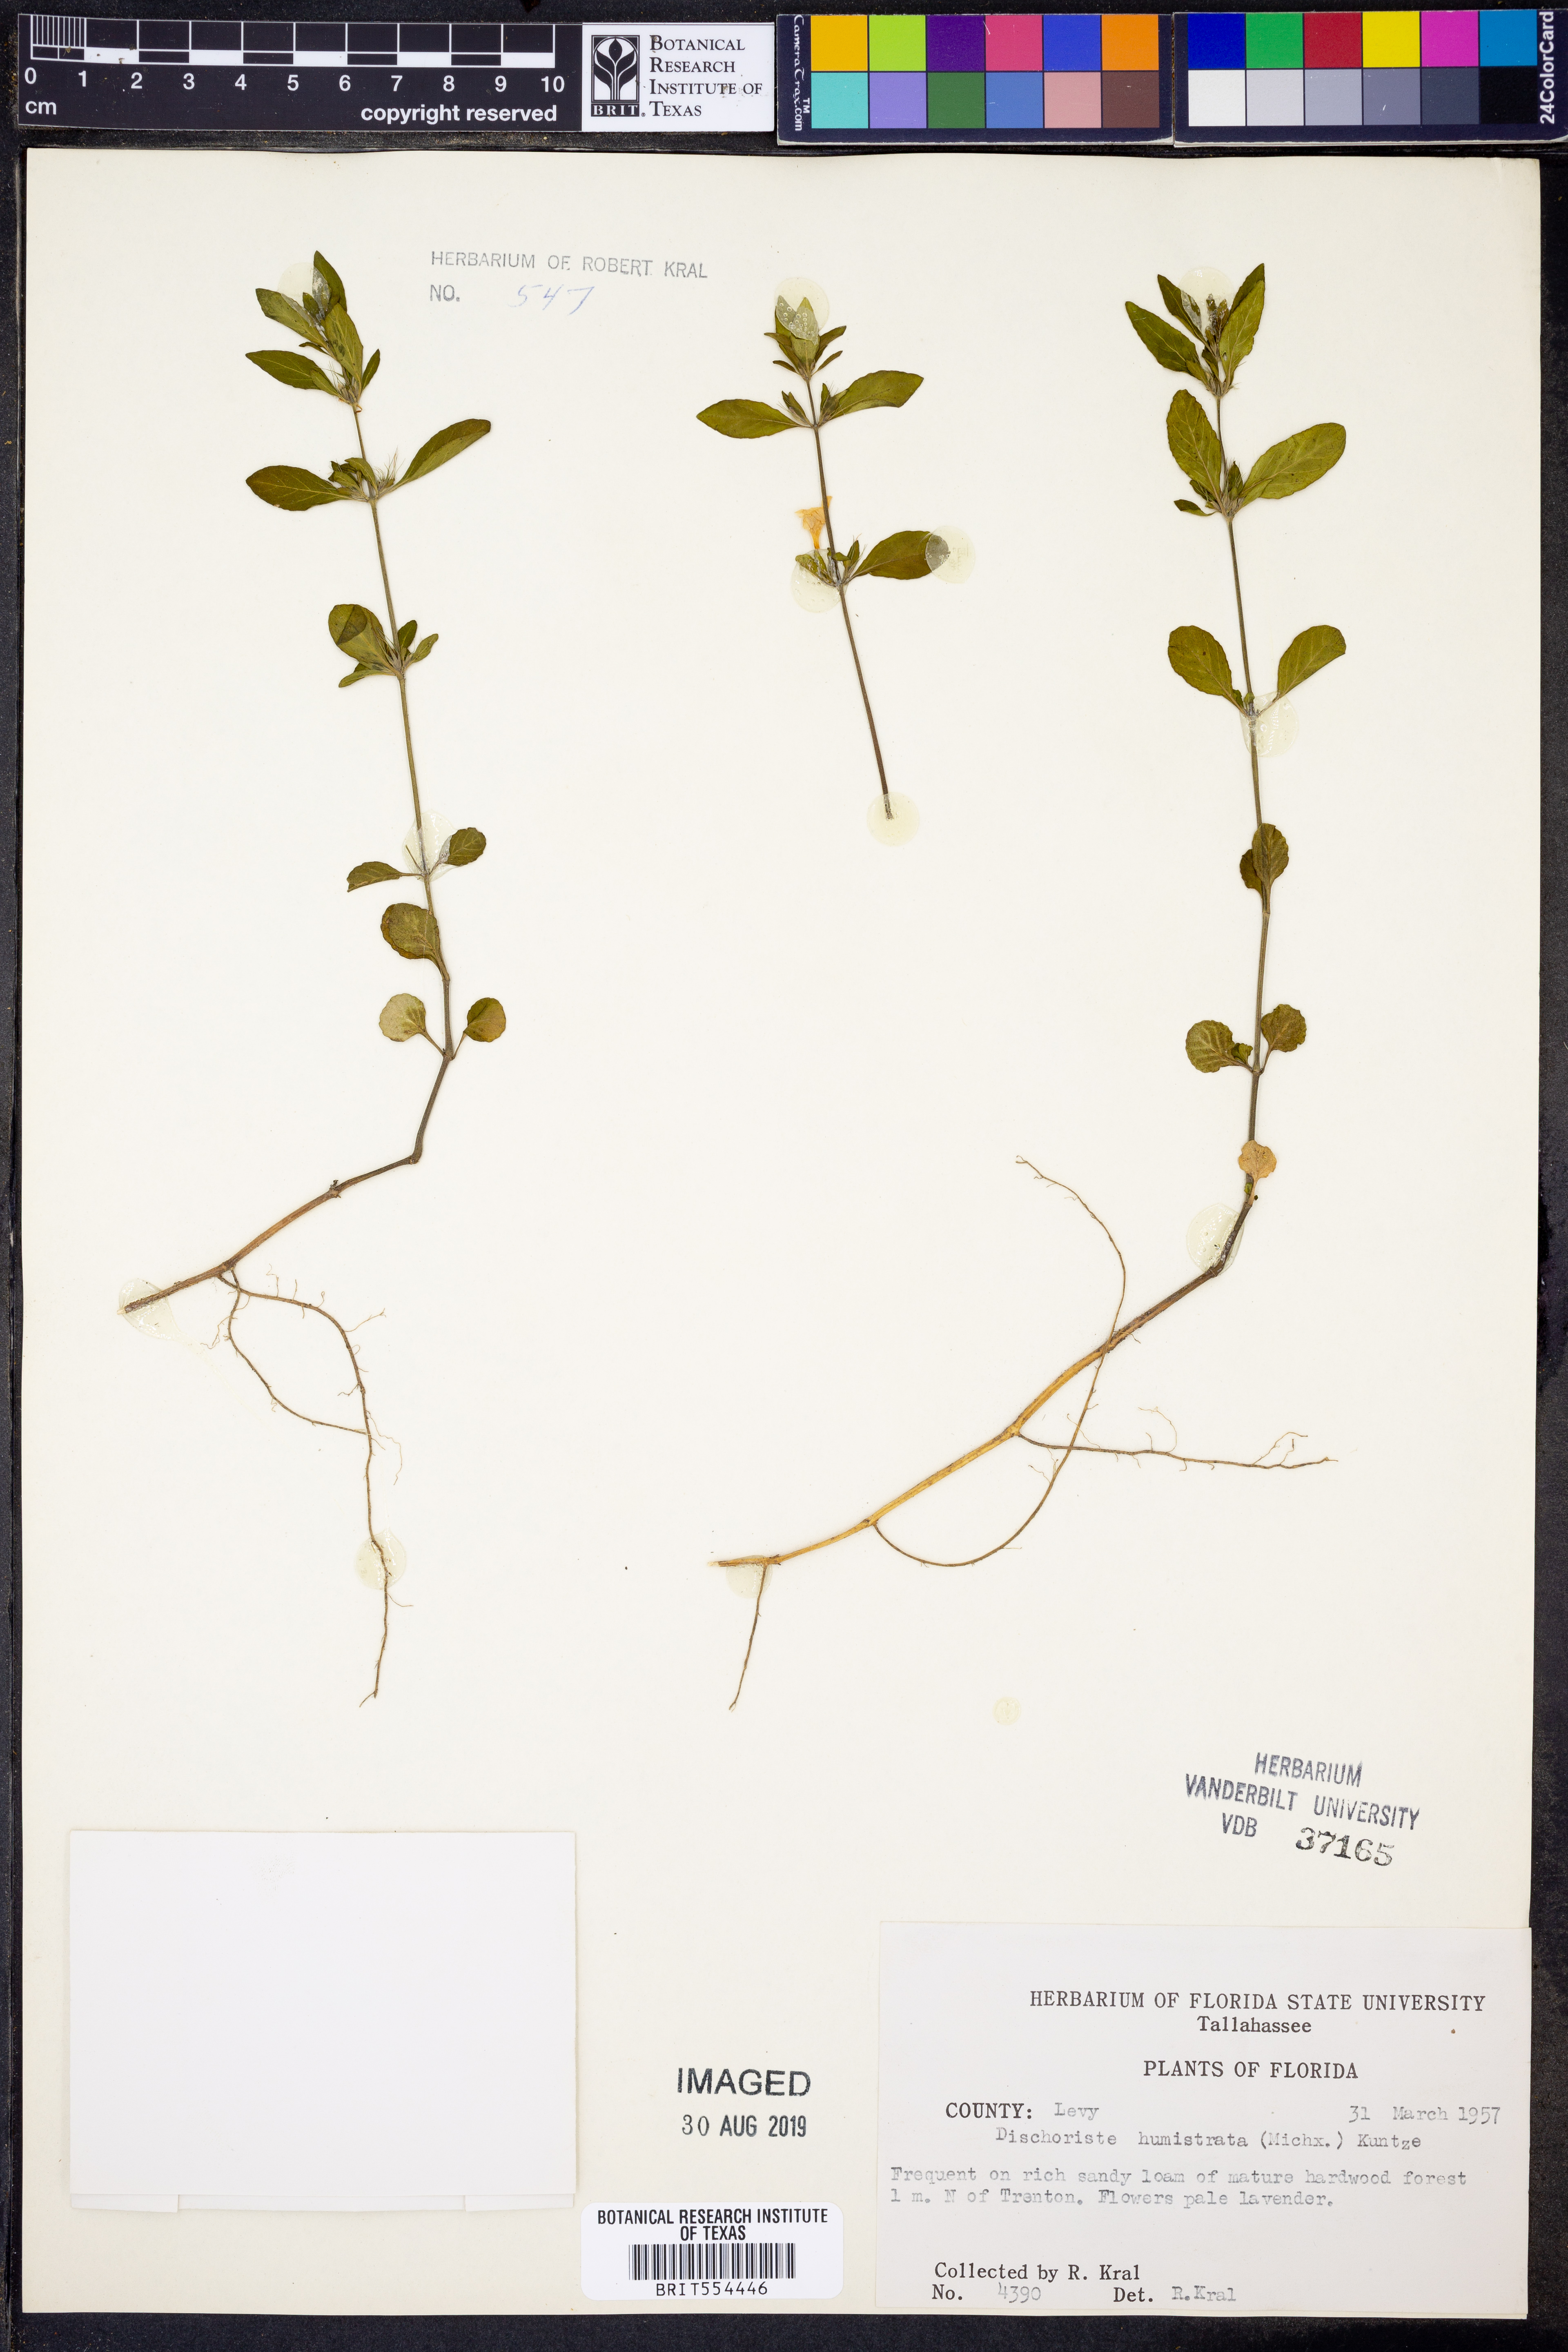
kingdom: Plantae
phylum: Tracheophyta
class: Magnoliopsida
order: Lamiales
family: Acanthaceae
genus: Dyschoriste
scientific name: Dyschoriste humistrata
